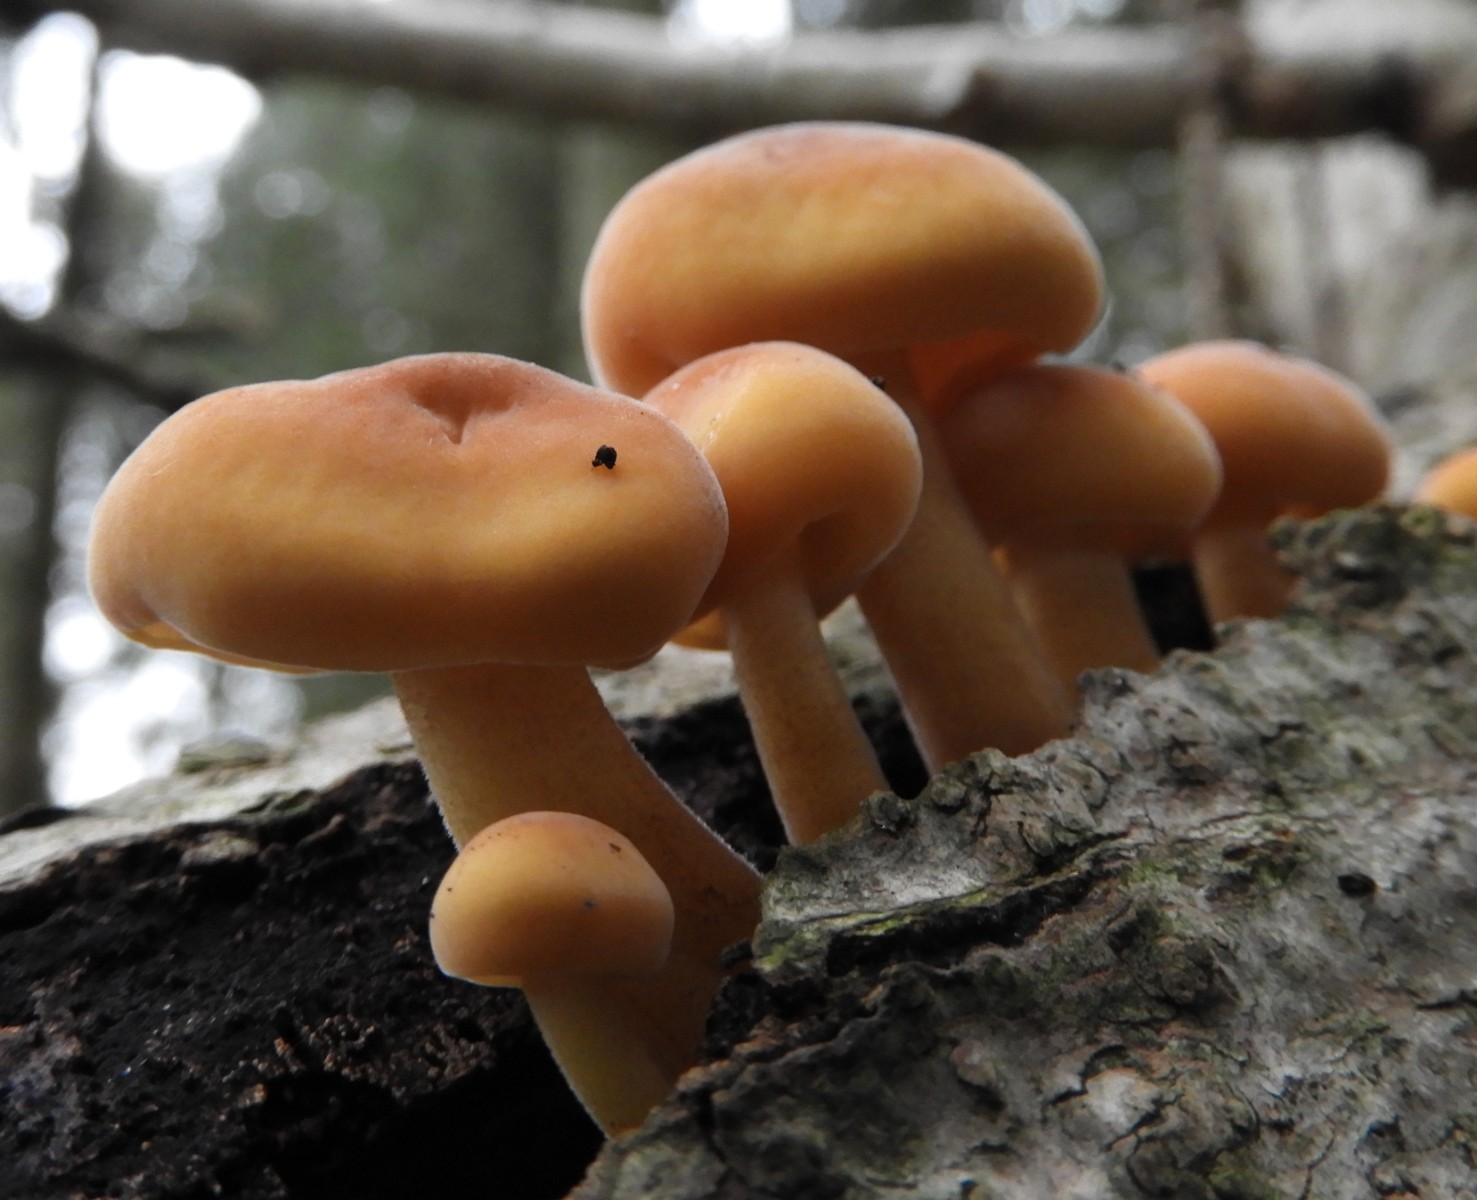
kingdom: Fungi
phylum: Basidiomycota
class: Agaricomycetes
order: Agaricales
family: Physalacriaceae
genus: Flammulina
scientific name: Flammulina
